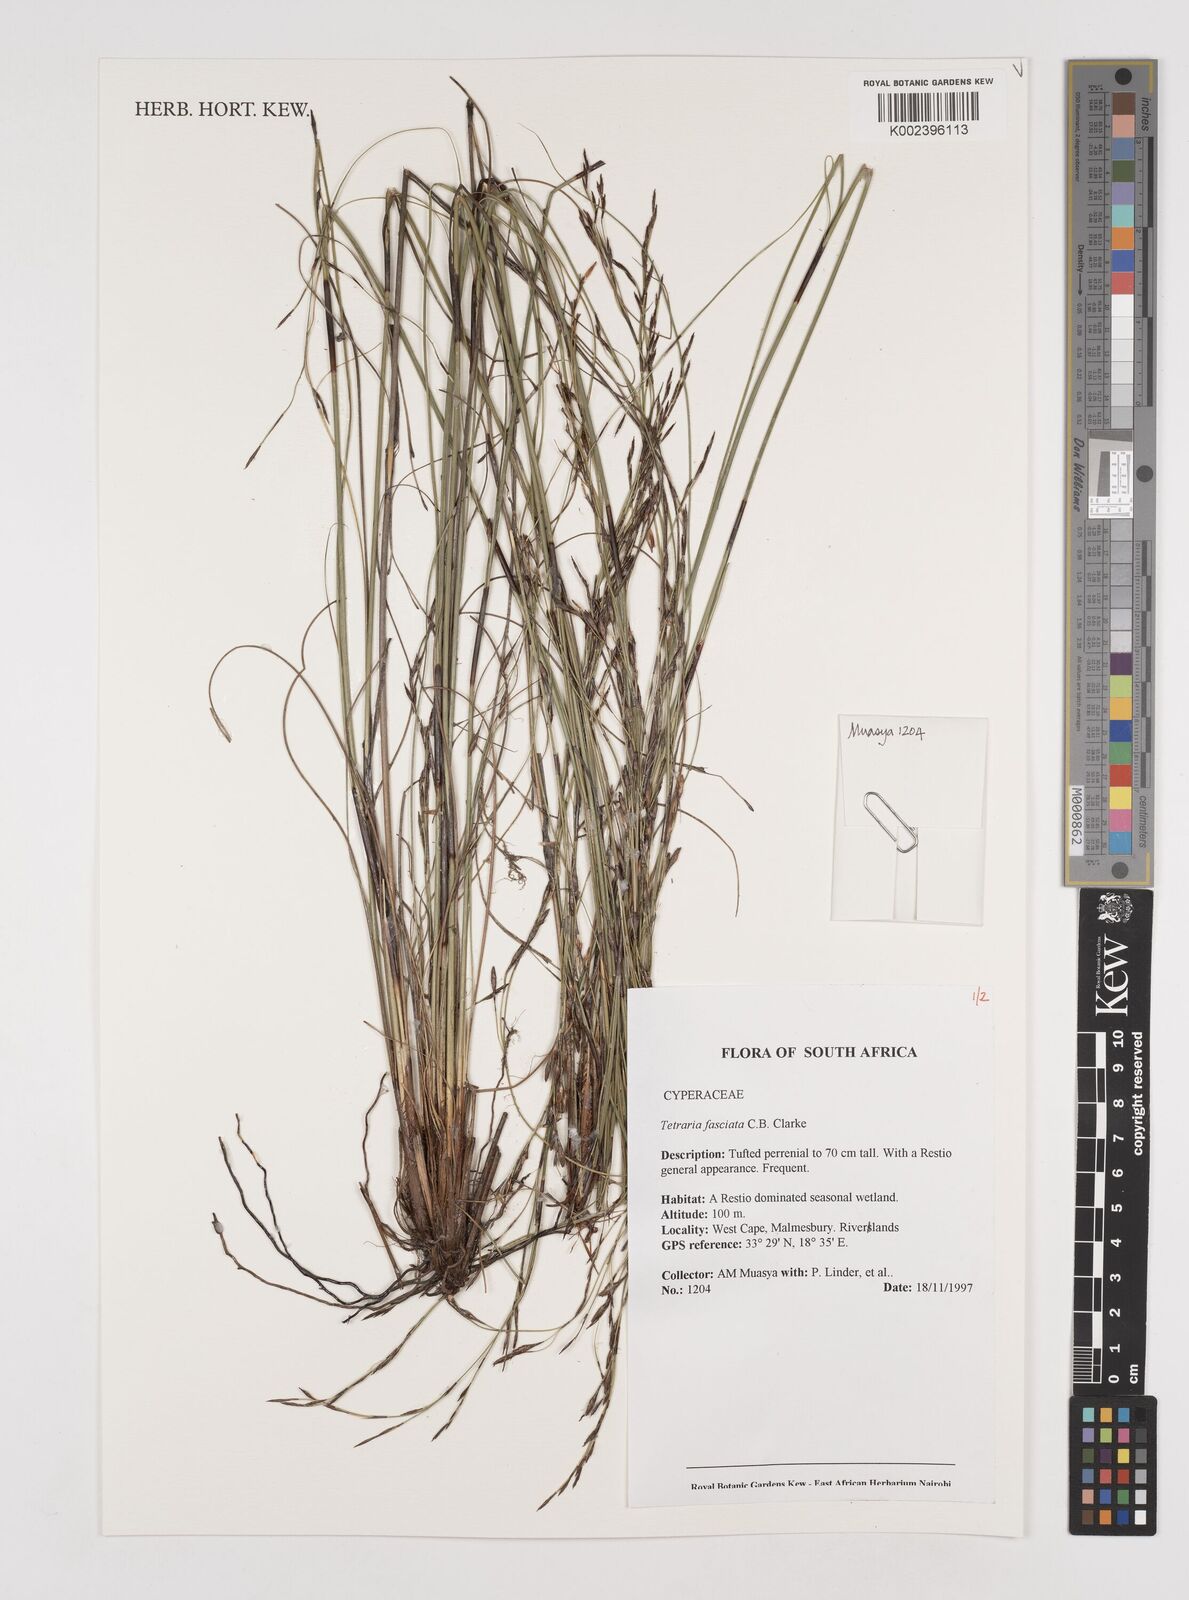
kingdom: Plantae
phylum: Tracheophyta
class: Liliopsida
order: Poales
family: Cyperaceae
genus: Tetraria
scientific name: Tetraria fasciata
